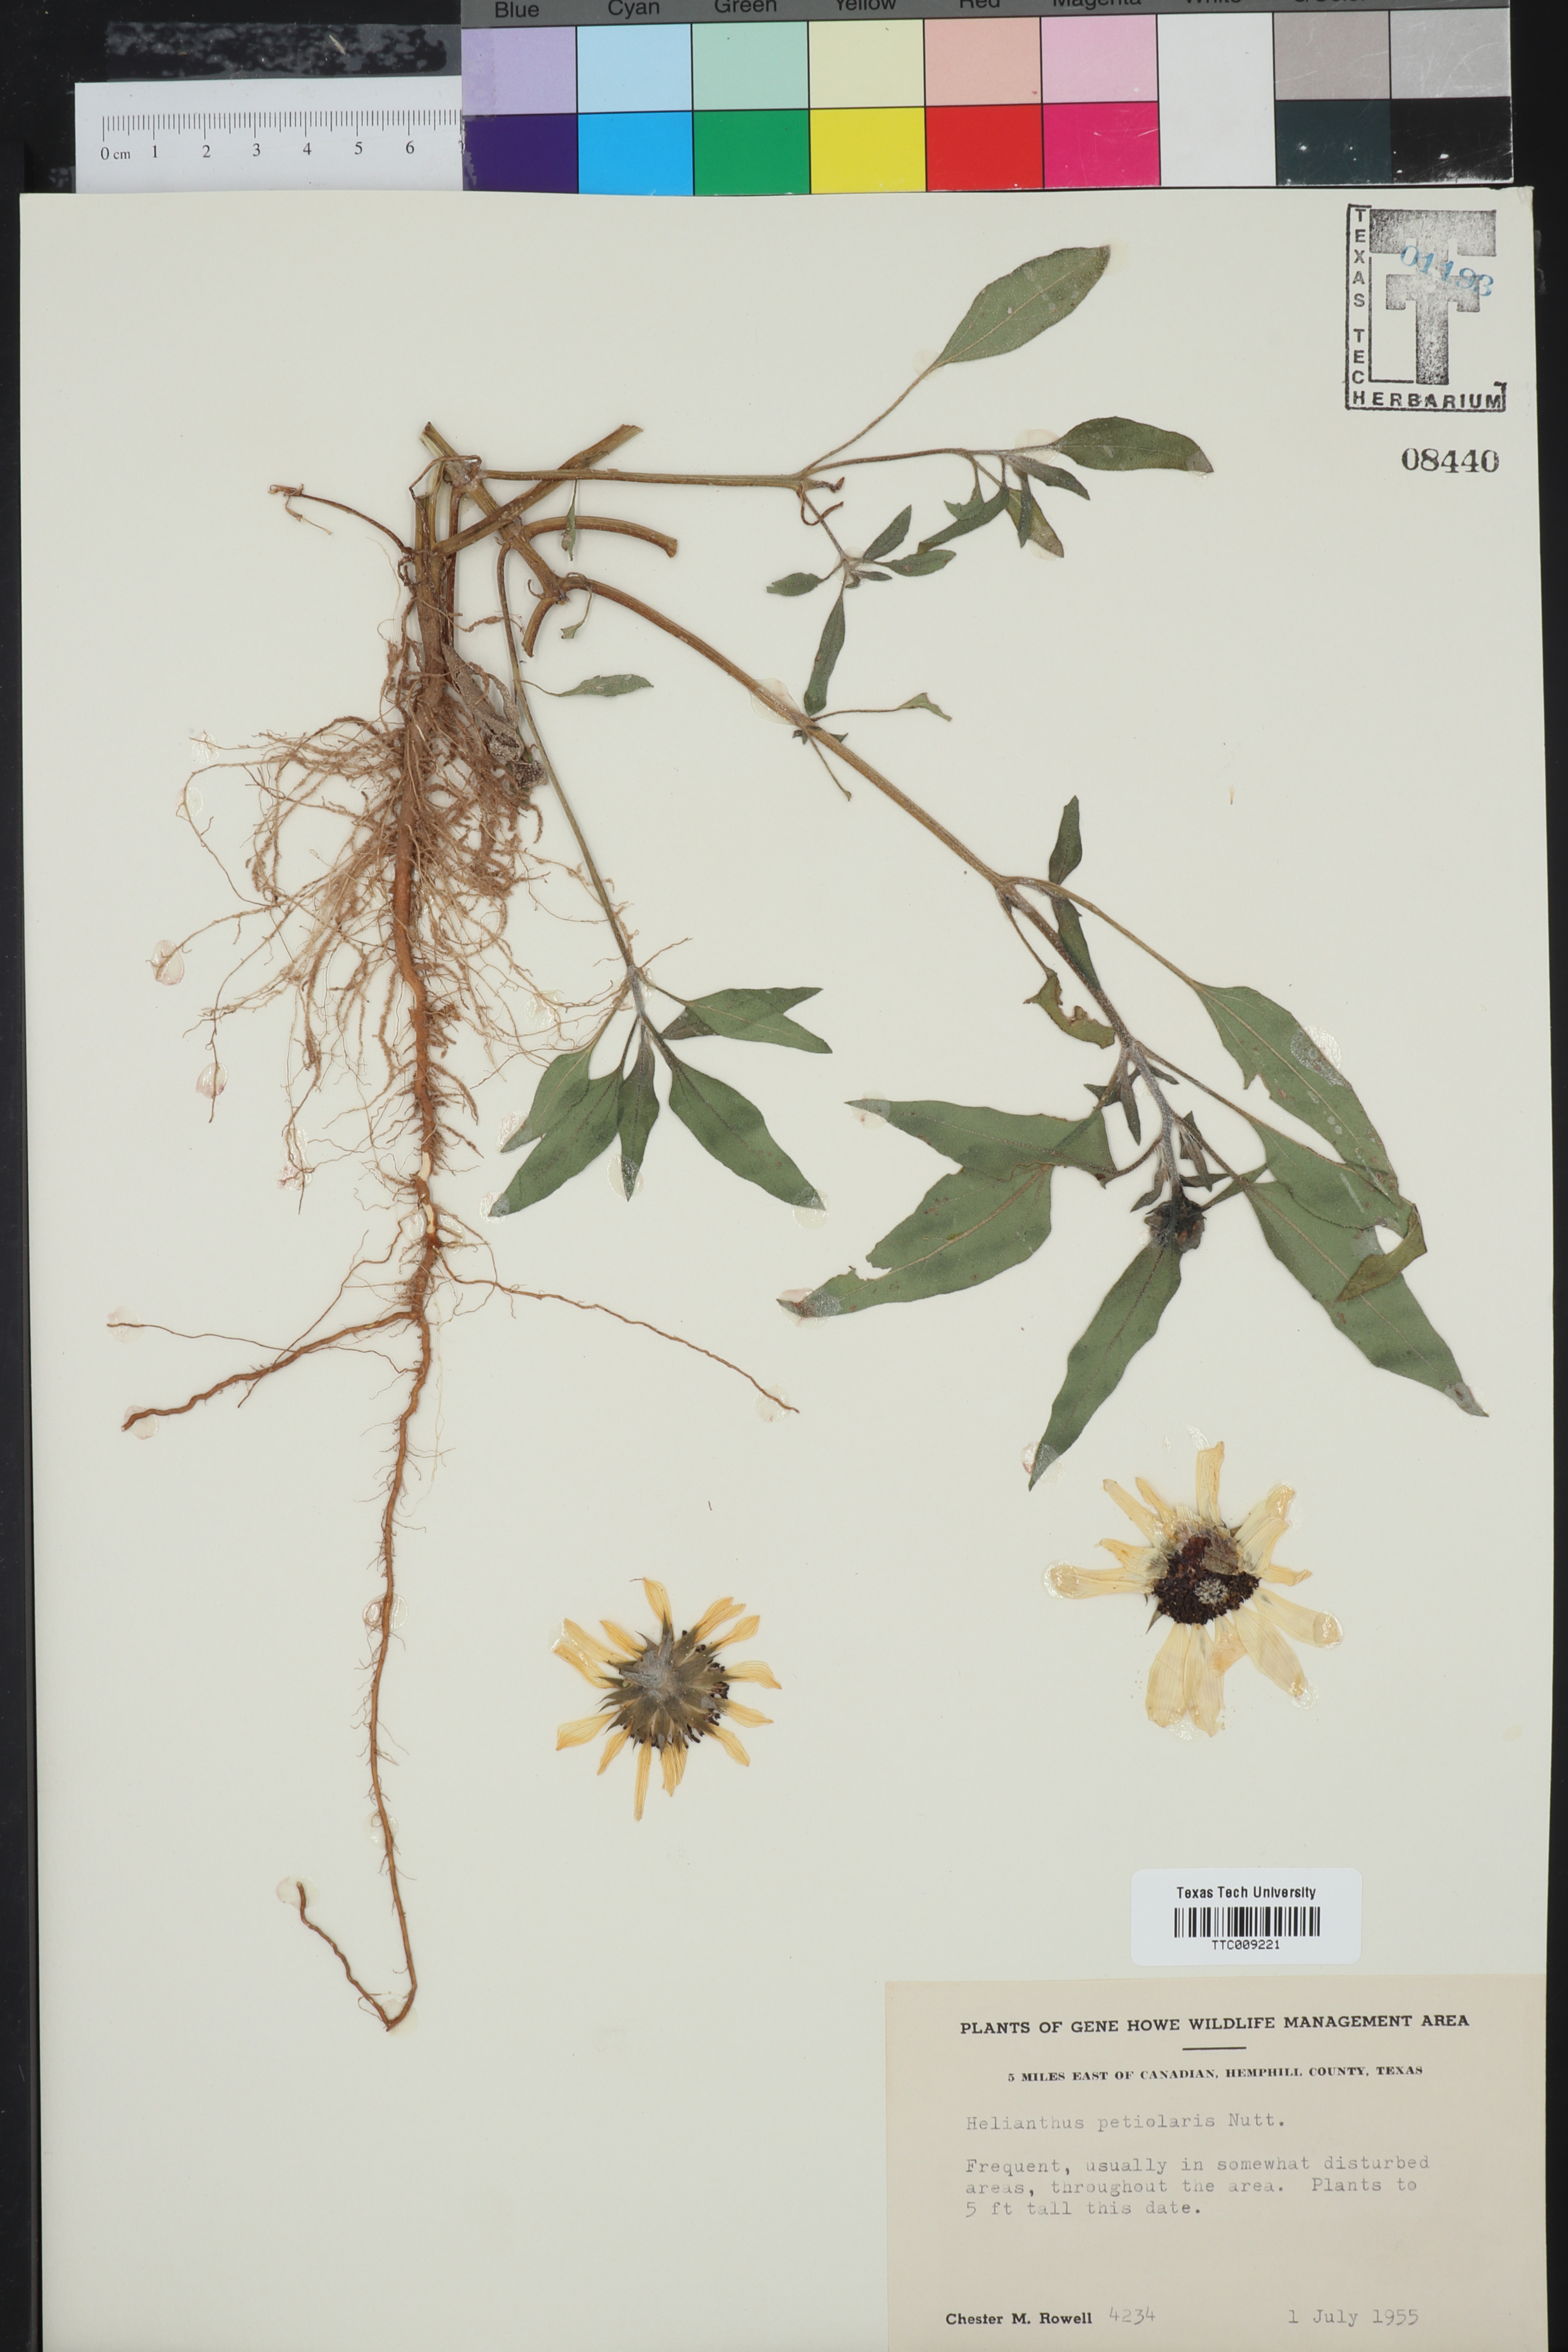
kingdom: Plantae
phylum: Tracheophyta
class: Magnoliopsida
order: Asterales
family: Asteraceae
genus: Helianthus
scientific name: Helianthus petiolaris
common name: Lesser sunflower
